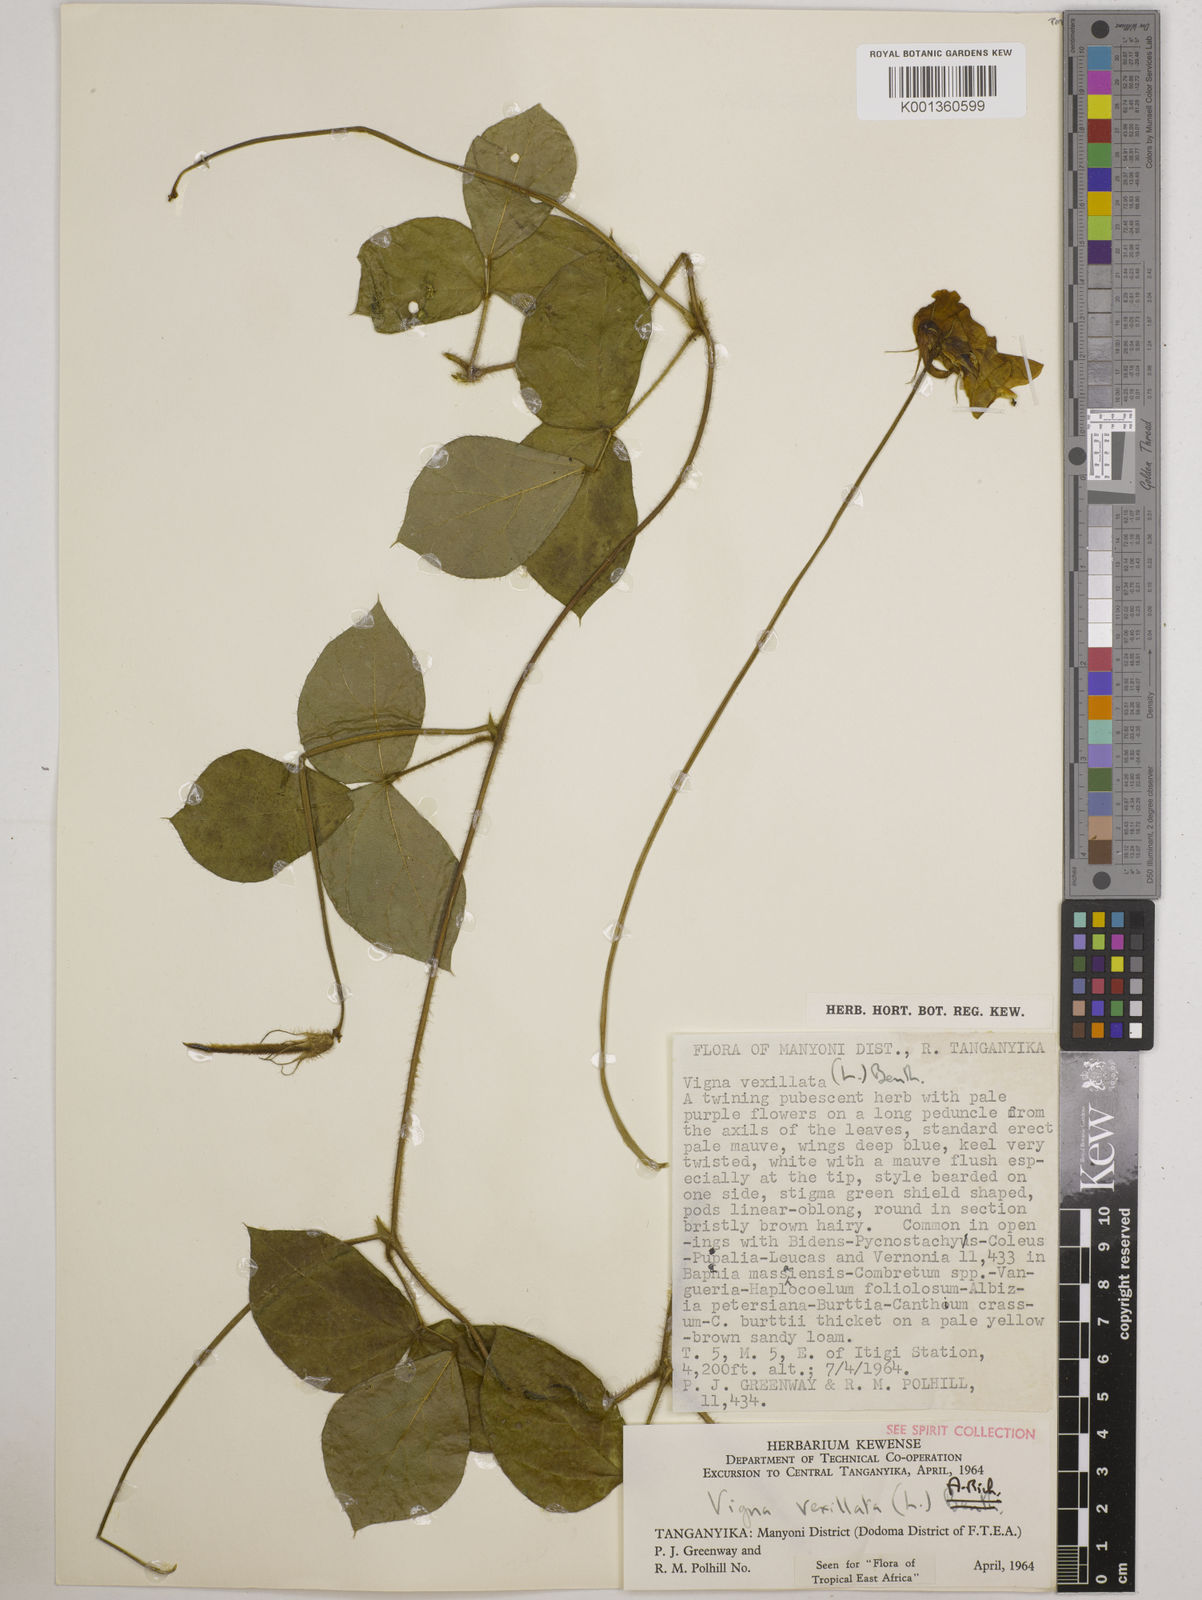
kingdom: Plantae
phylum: Tracheophyta
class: Magnoliopsida
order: Fabales
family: Fabaceae
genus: Vigna
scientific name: Vigna vexillata
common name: Zombi pea
